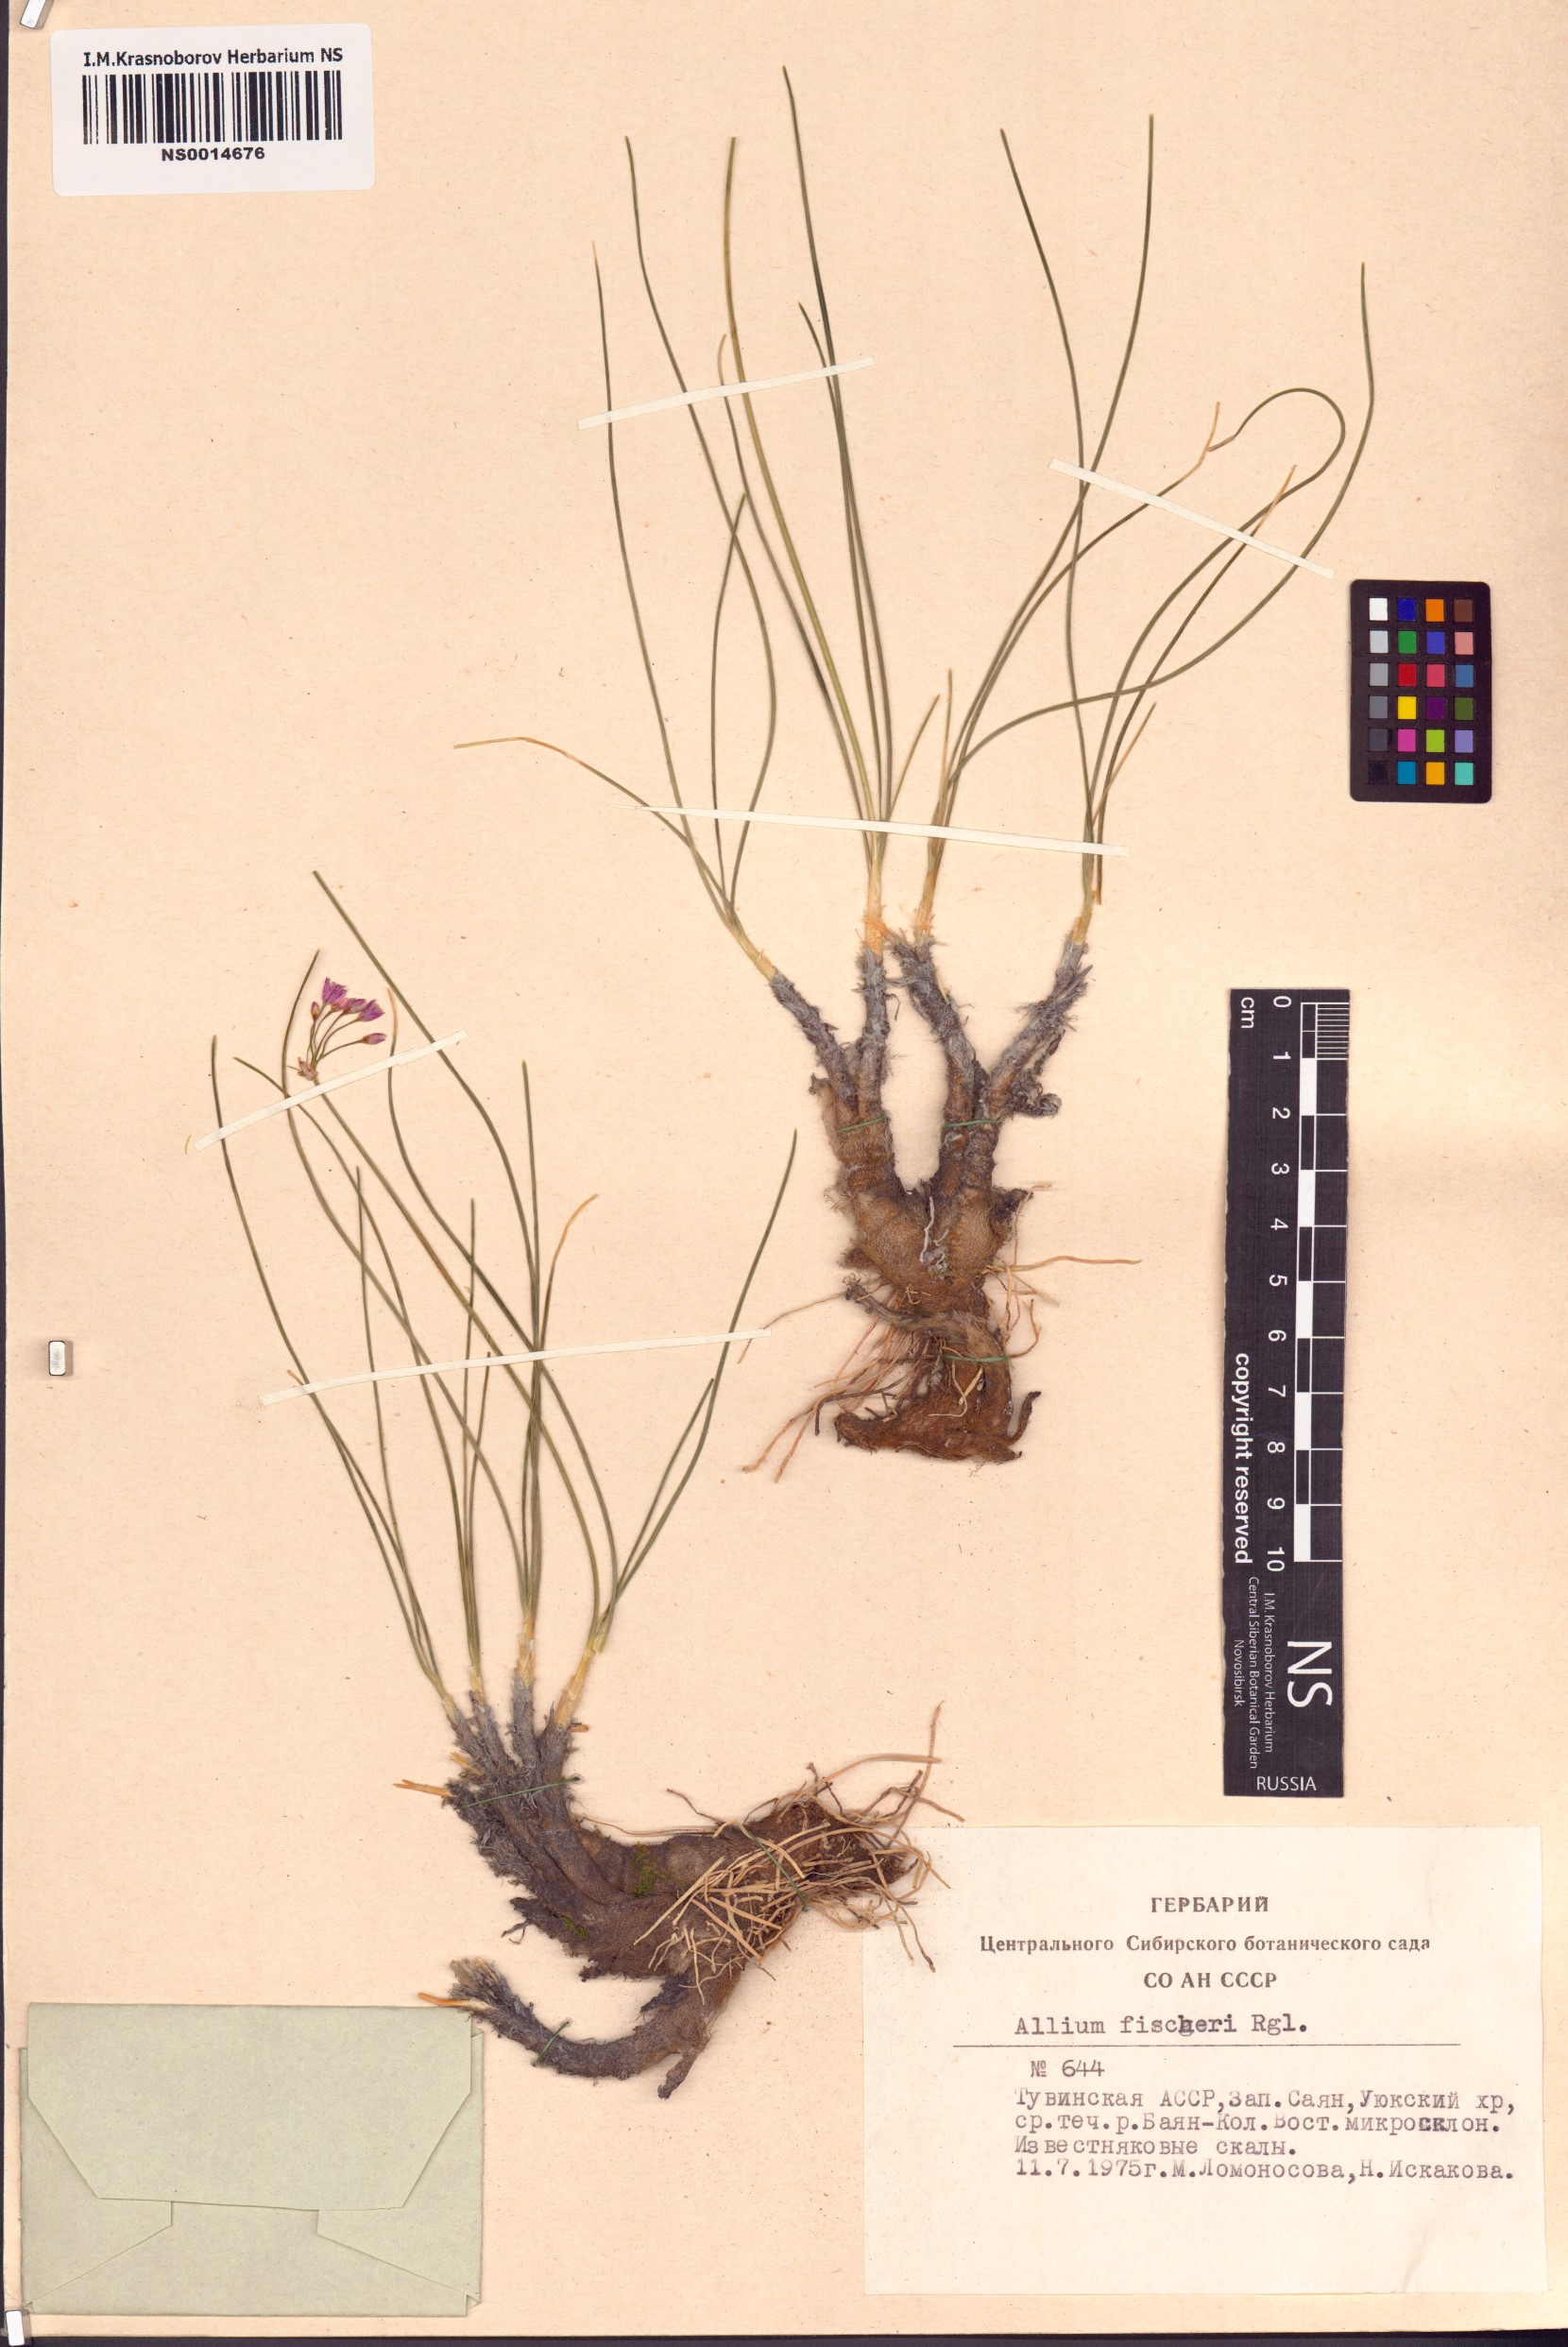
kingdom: Plantae
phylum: Tracheophyta
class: Liliopsida
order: Asparagales
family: Amaryllidaceae
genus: Allium
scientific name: Allium eduardi
